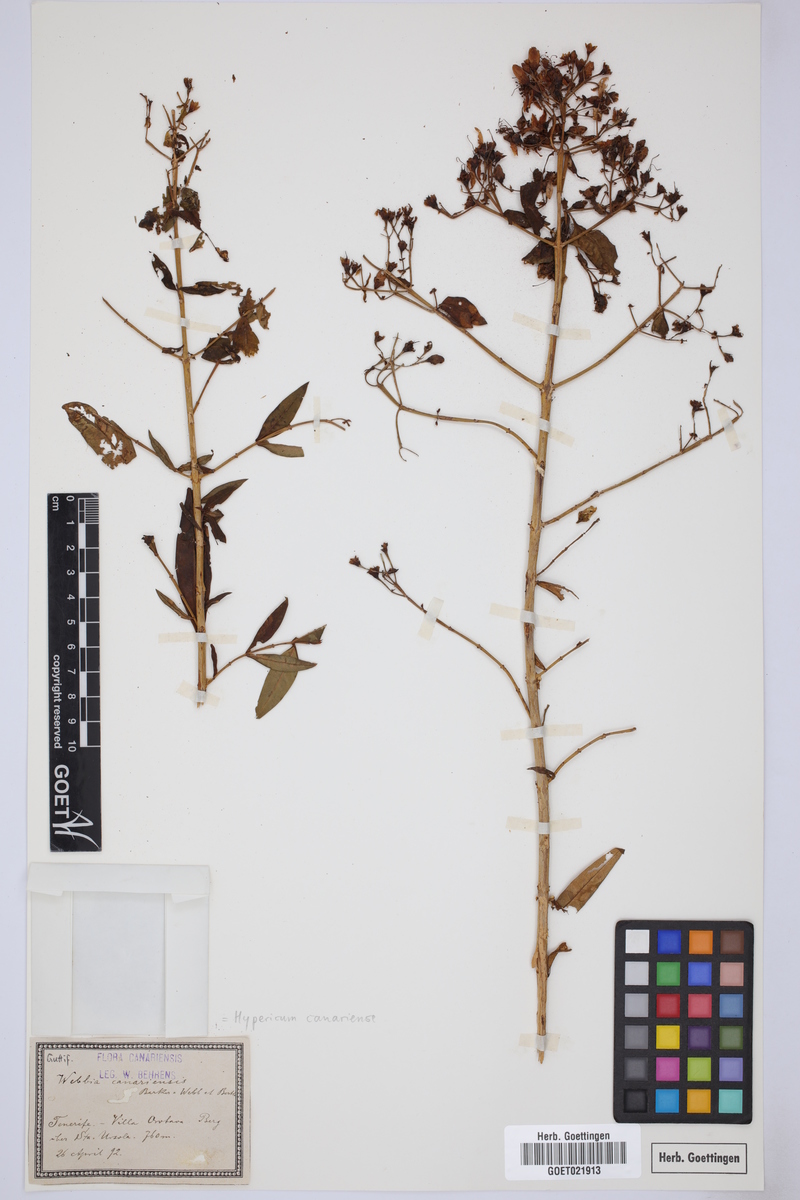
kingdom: Plantae
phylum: Tracheophyta
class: Magnoliopsida
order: Malpighiales
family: Hypericaceae
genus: Hypericum
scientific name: Hypericum canariense
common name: Canary island st. johnswort
